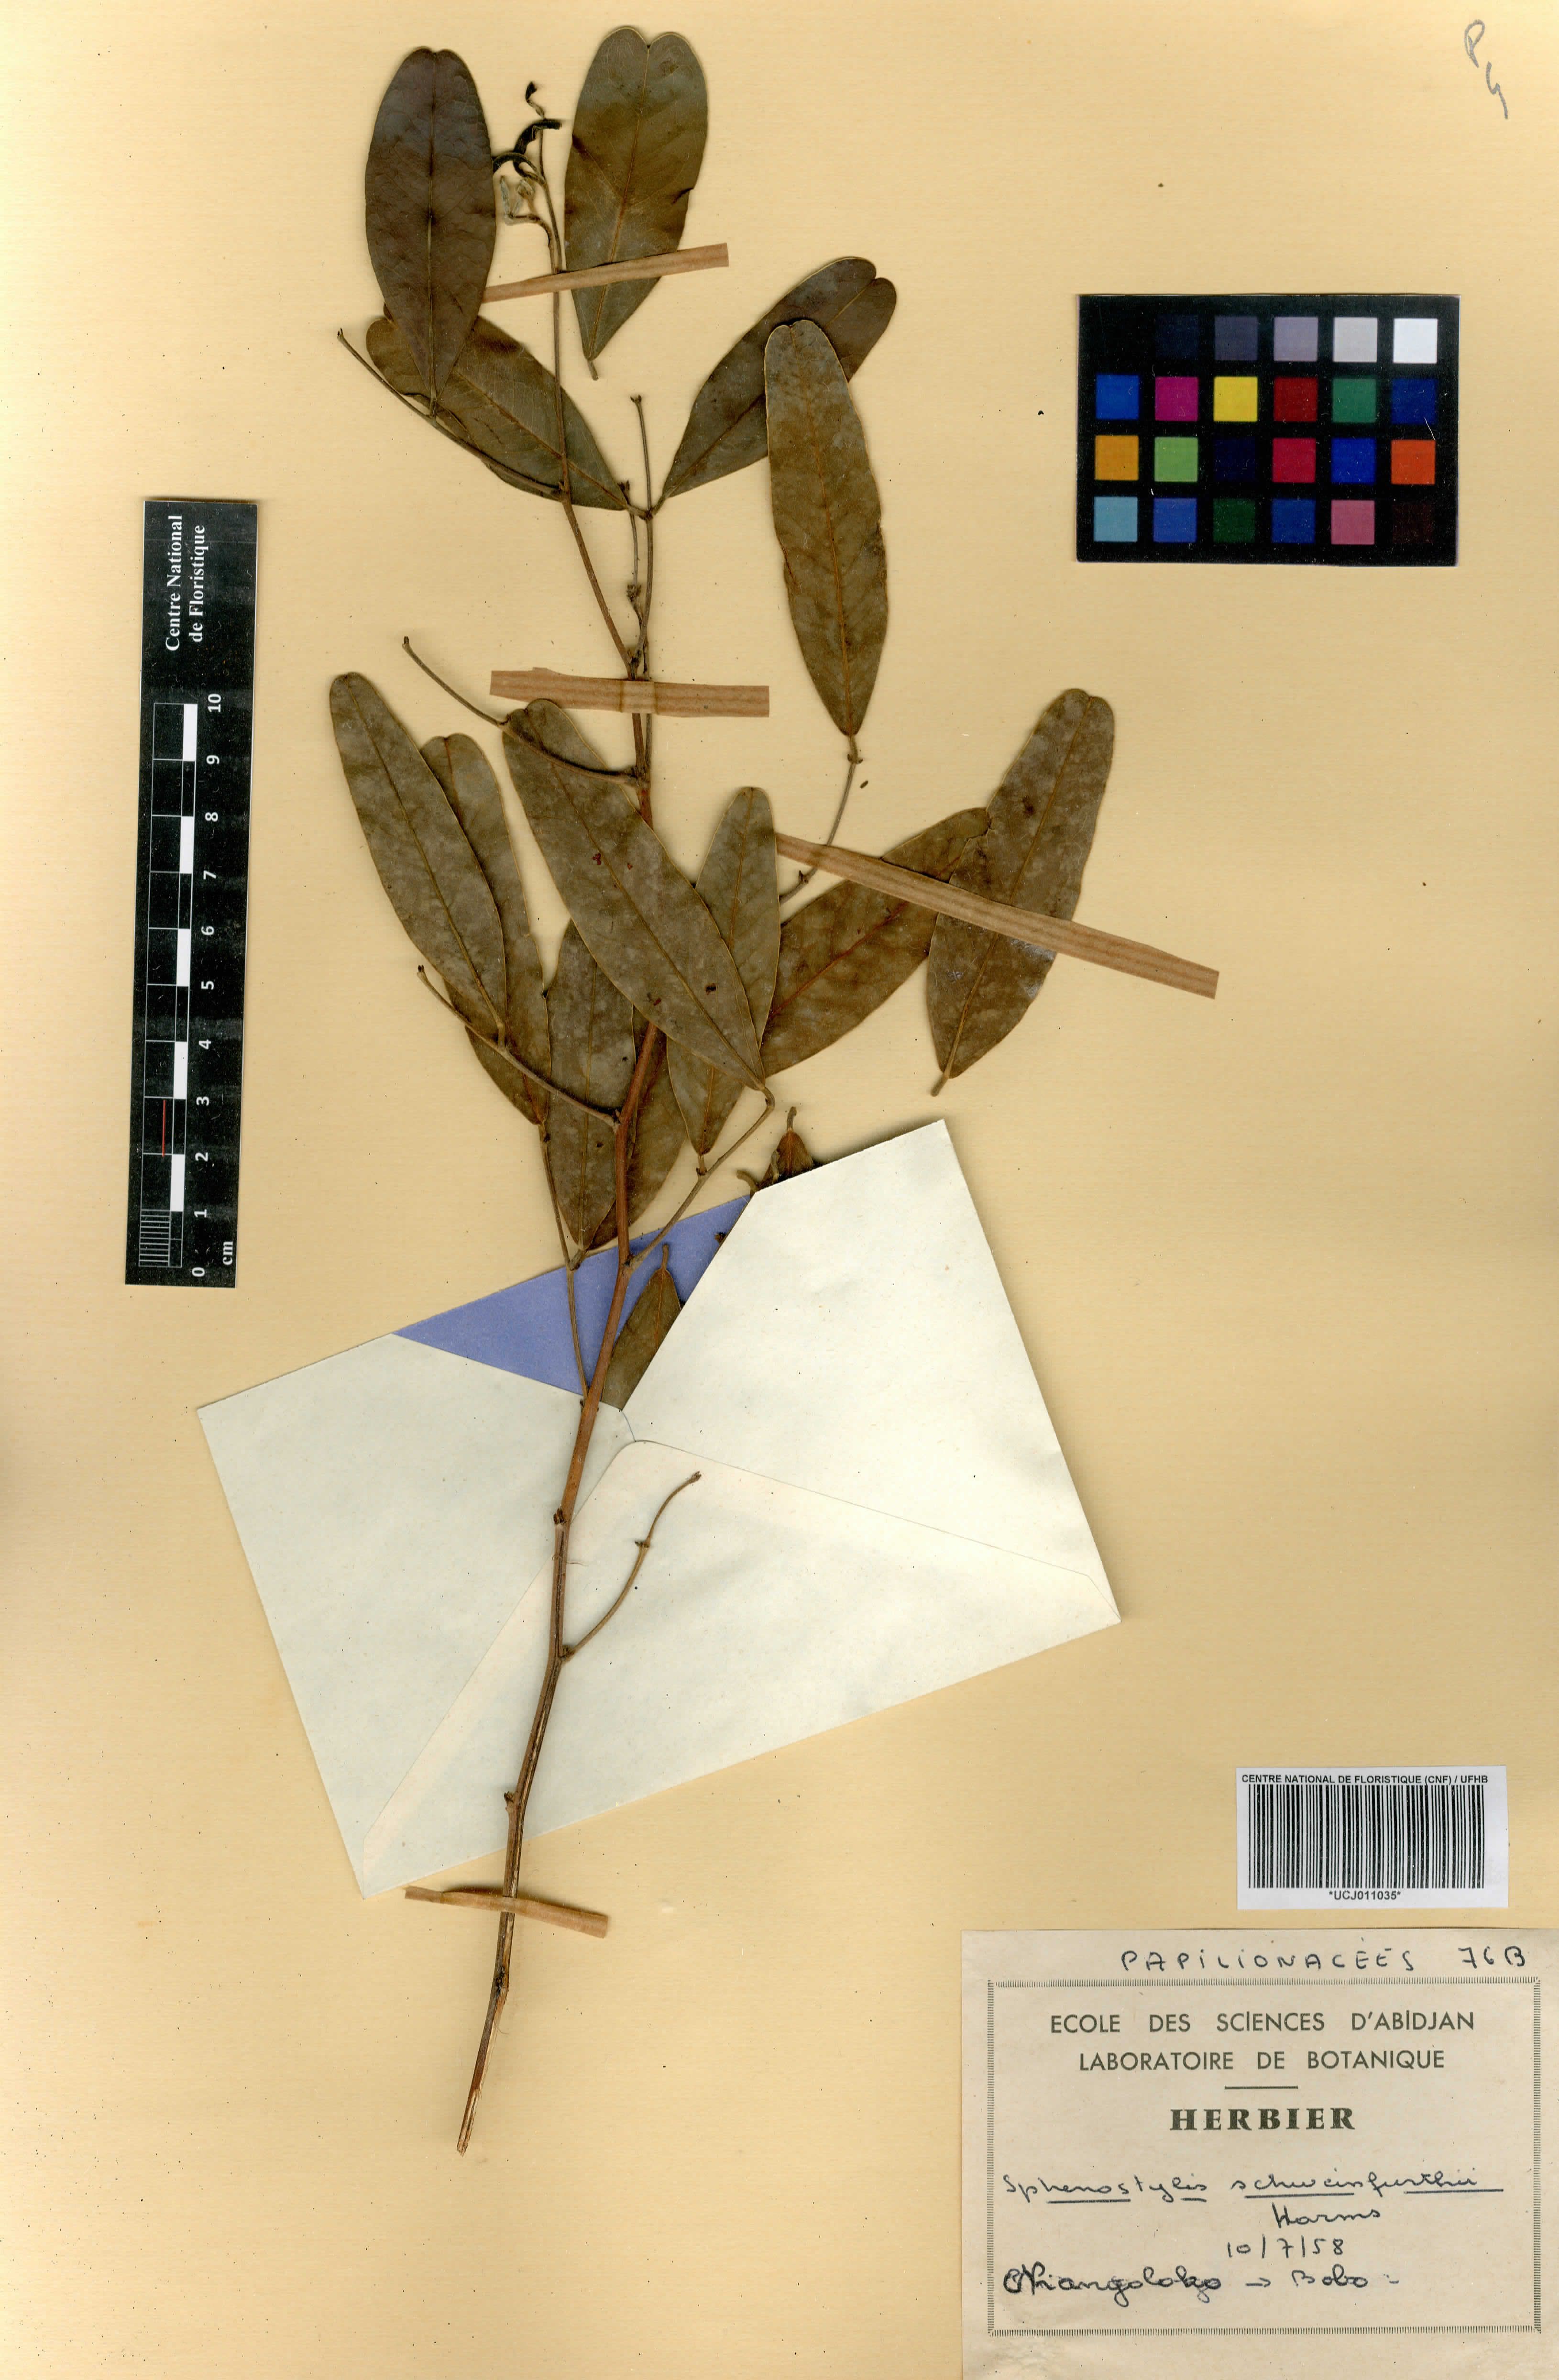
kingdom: Plantae
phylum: Tracheophyta
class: Magnoliopsida
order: Fabales
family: Fabaceae
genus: Sphenostylis
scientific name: Sphenostylis schweinfurthii
